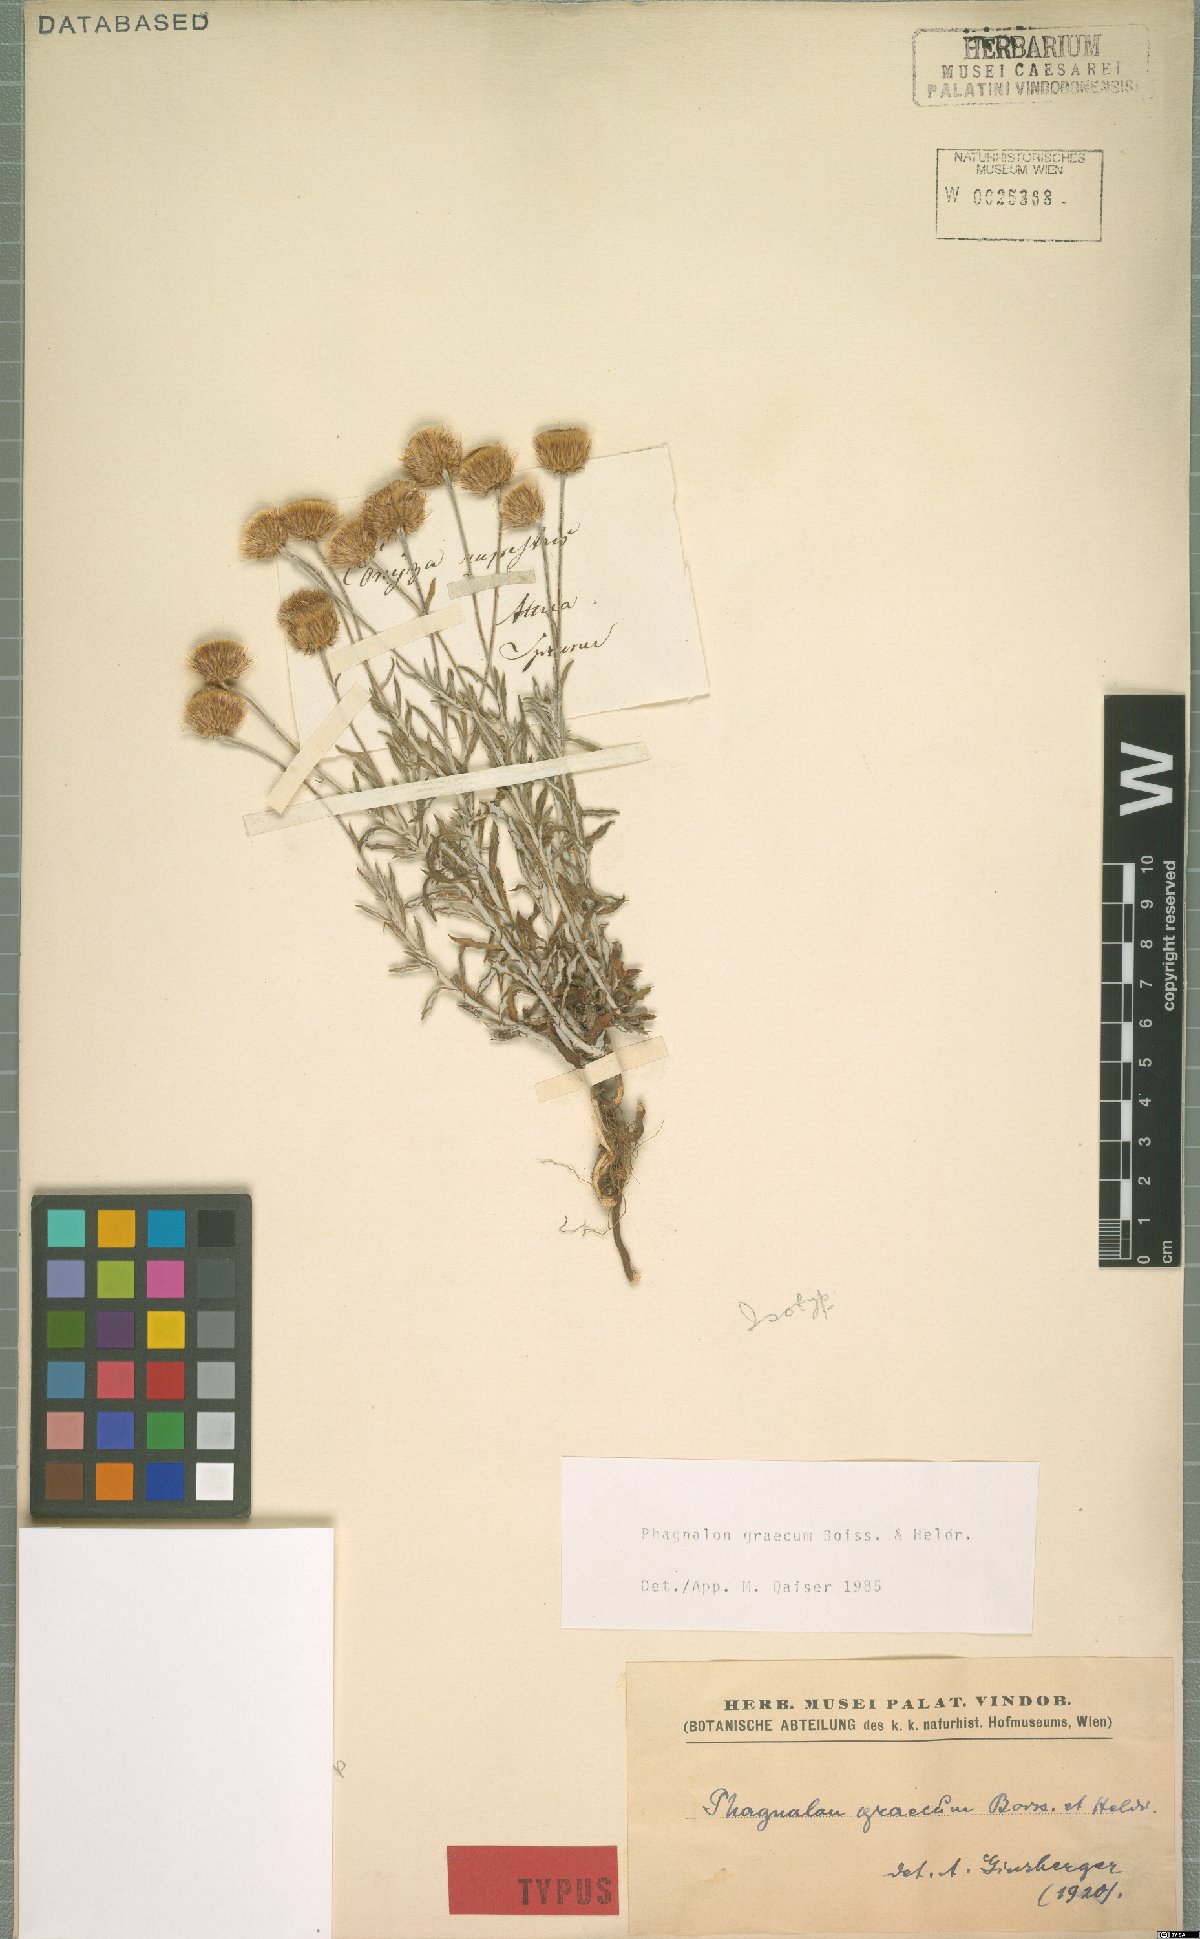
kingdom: Plantae
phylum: Tracheophyta
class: Magnoliopsida
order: Asterales
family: Asteraceae
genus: Phagnalon
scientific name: Phagnalon graecum
